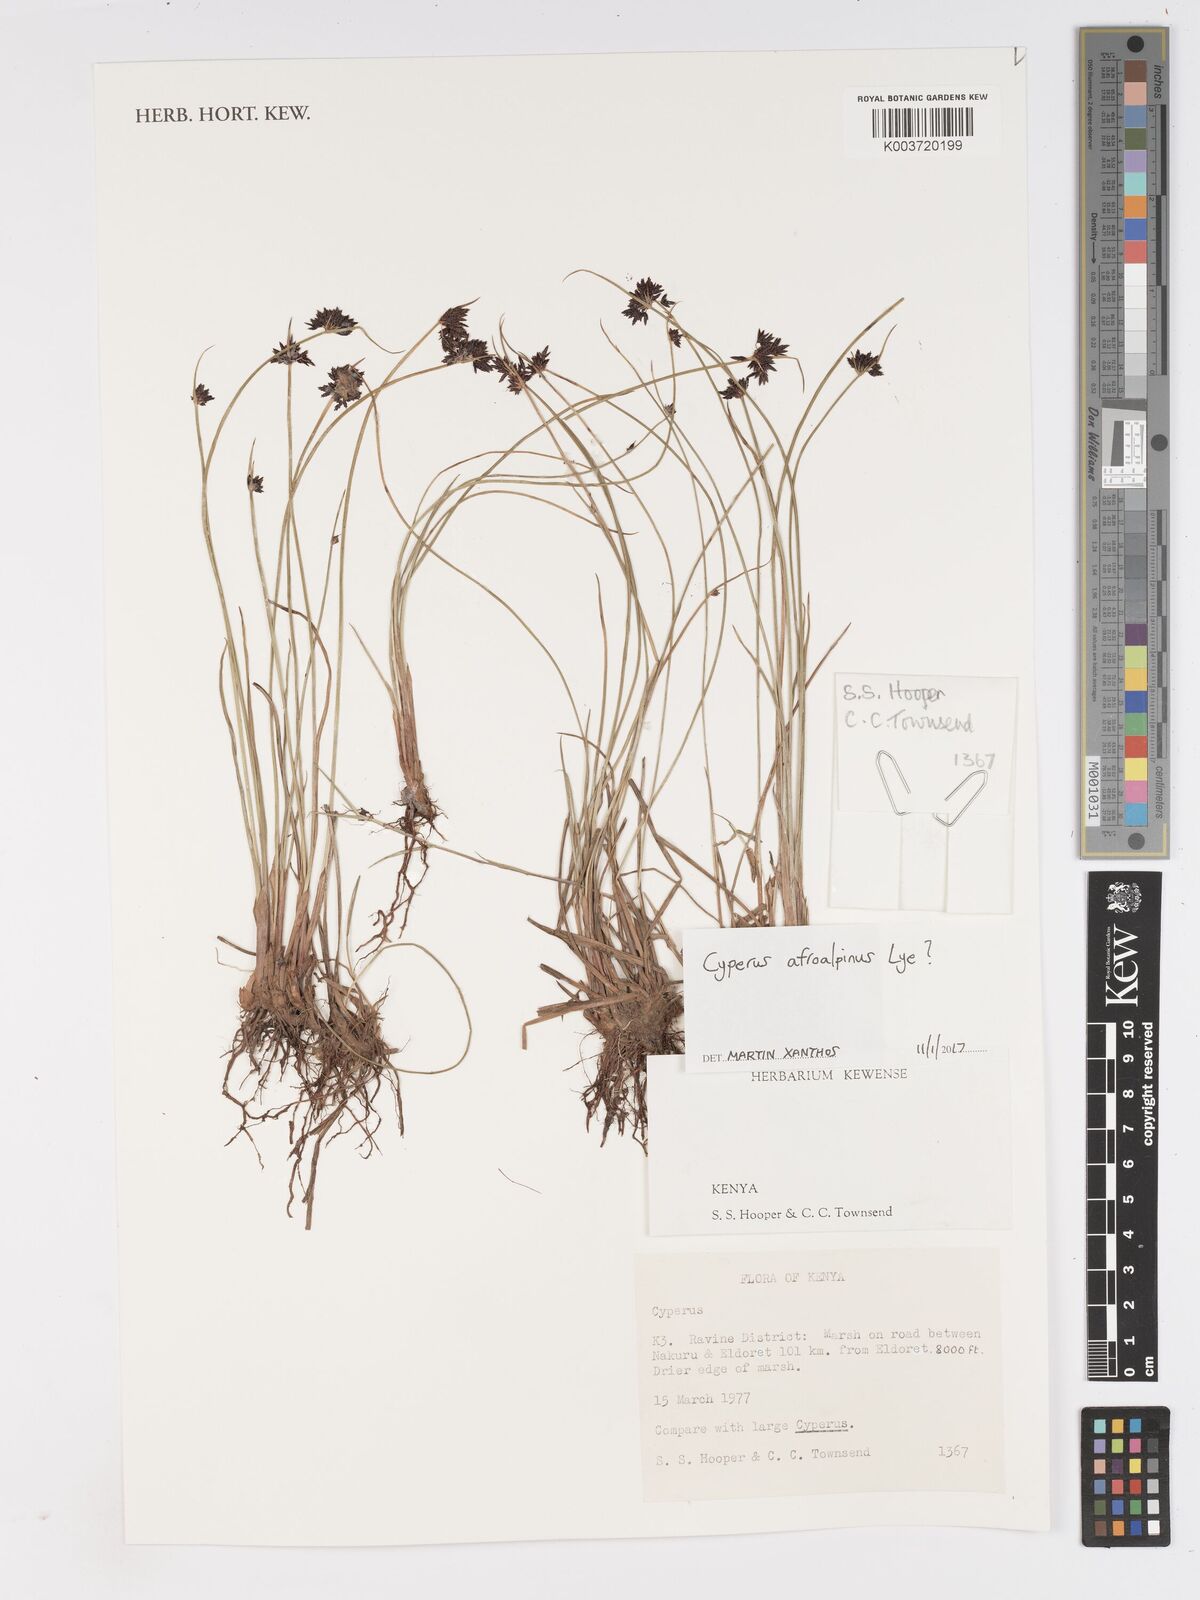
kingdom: Plantae
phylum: Tracheophyta
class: Liliopsida
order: Poales
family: Cyperaceae
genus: Cyperus
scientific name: Cyperus afroalpinus
